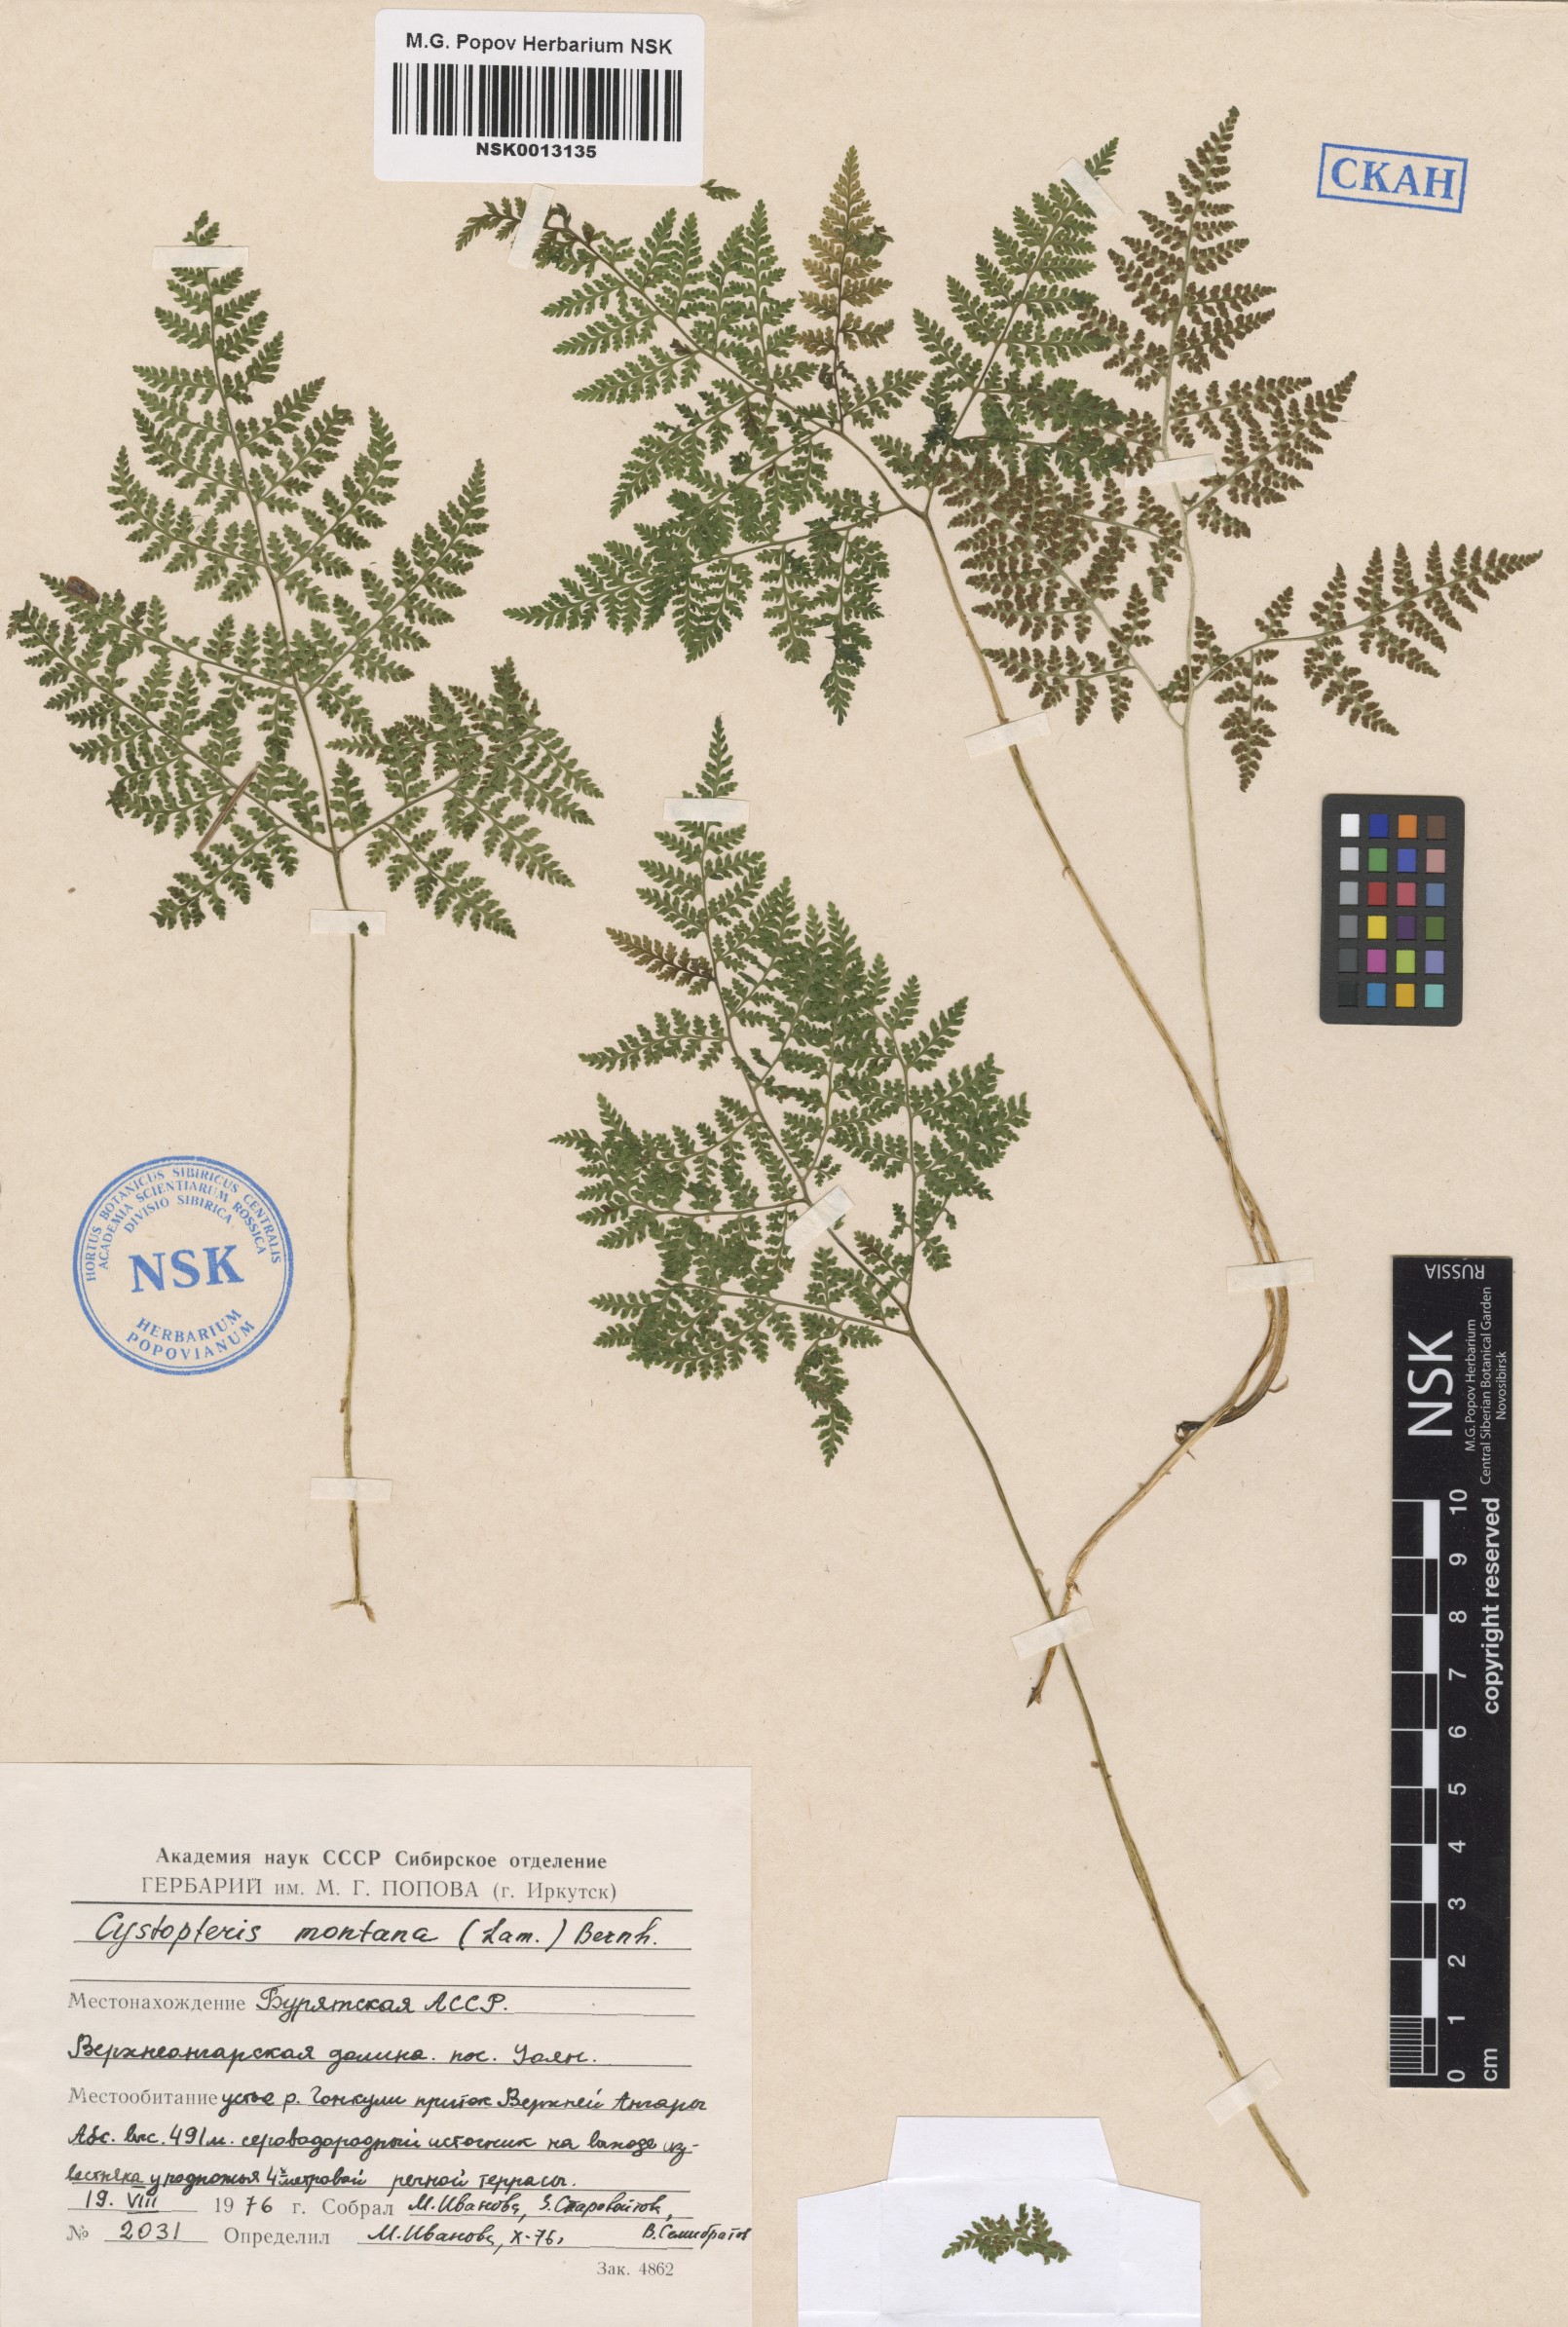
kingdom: Plantae
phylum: Tracheophyta
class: Polypodiopsida
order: Polypodiales
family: Cystopteridaceae
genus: Cystopteris
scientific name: Cystopteris montana
